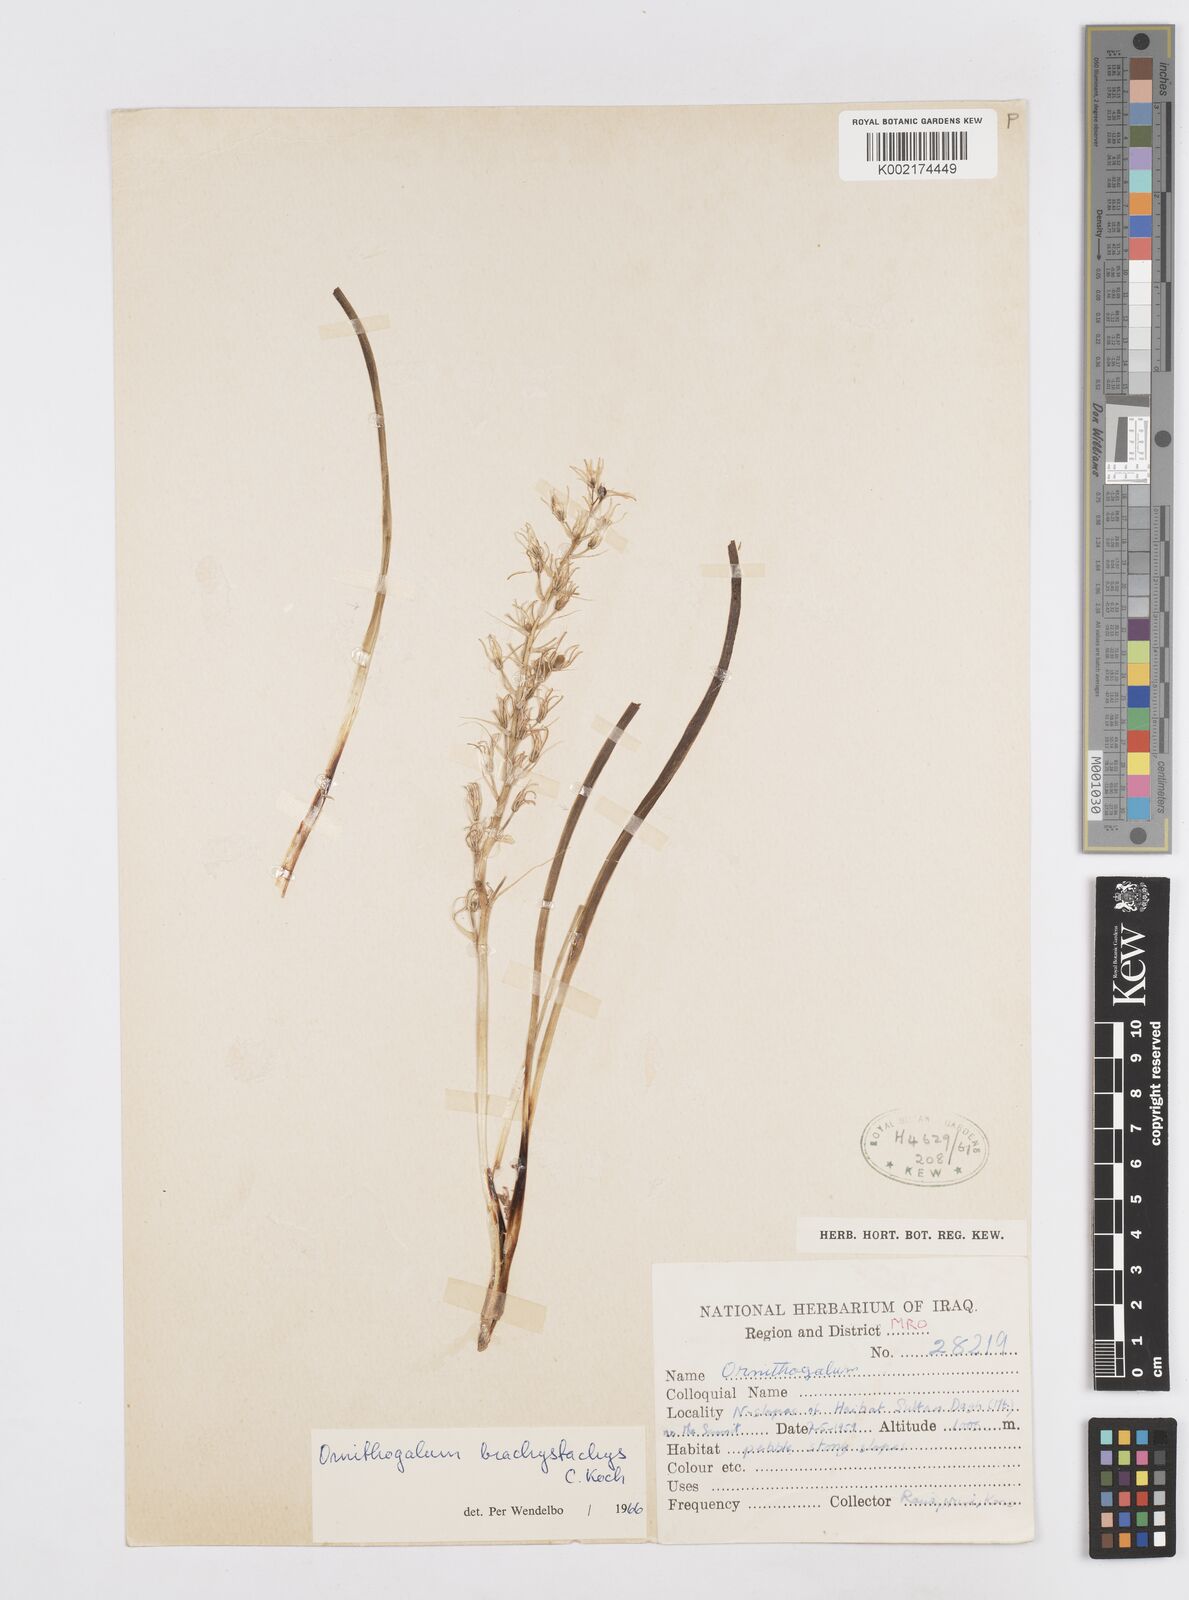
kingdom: Plantae
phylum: Tracheophyta
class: Liliopsida
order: Asparagales
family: Asparagaceae
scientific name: Asparagaceae
